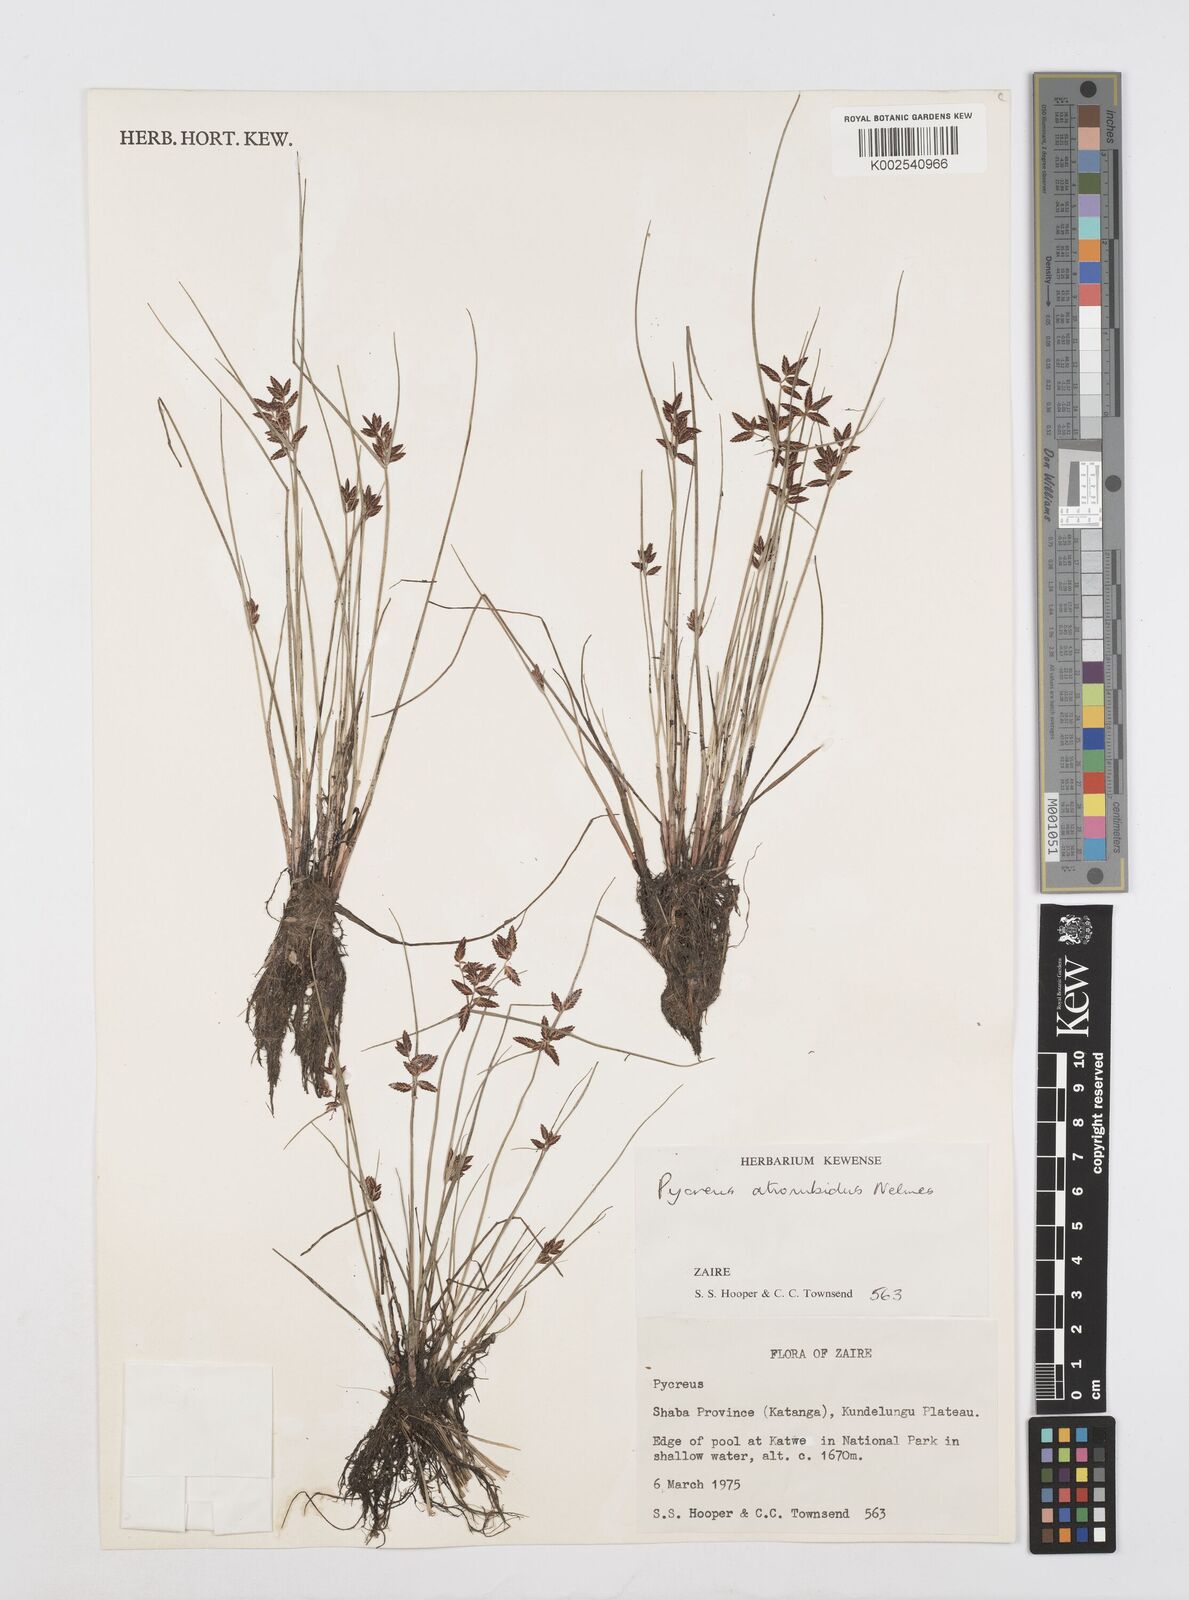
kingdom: Plantae
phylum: Tracheophyta
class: Liliopsida
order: Poales
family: Cyperaceae
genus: Cyperus
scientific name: Cyperus atrorubidus
